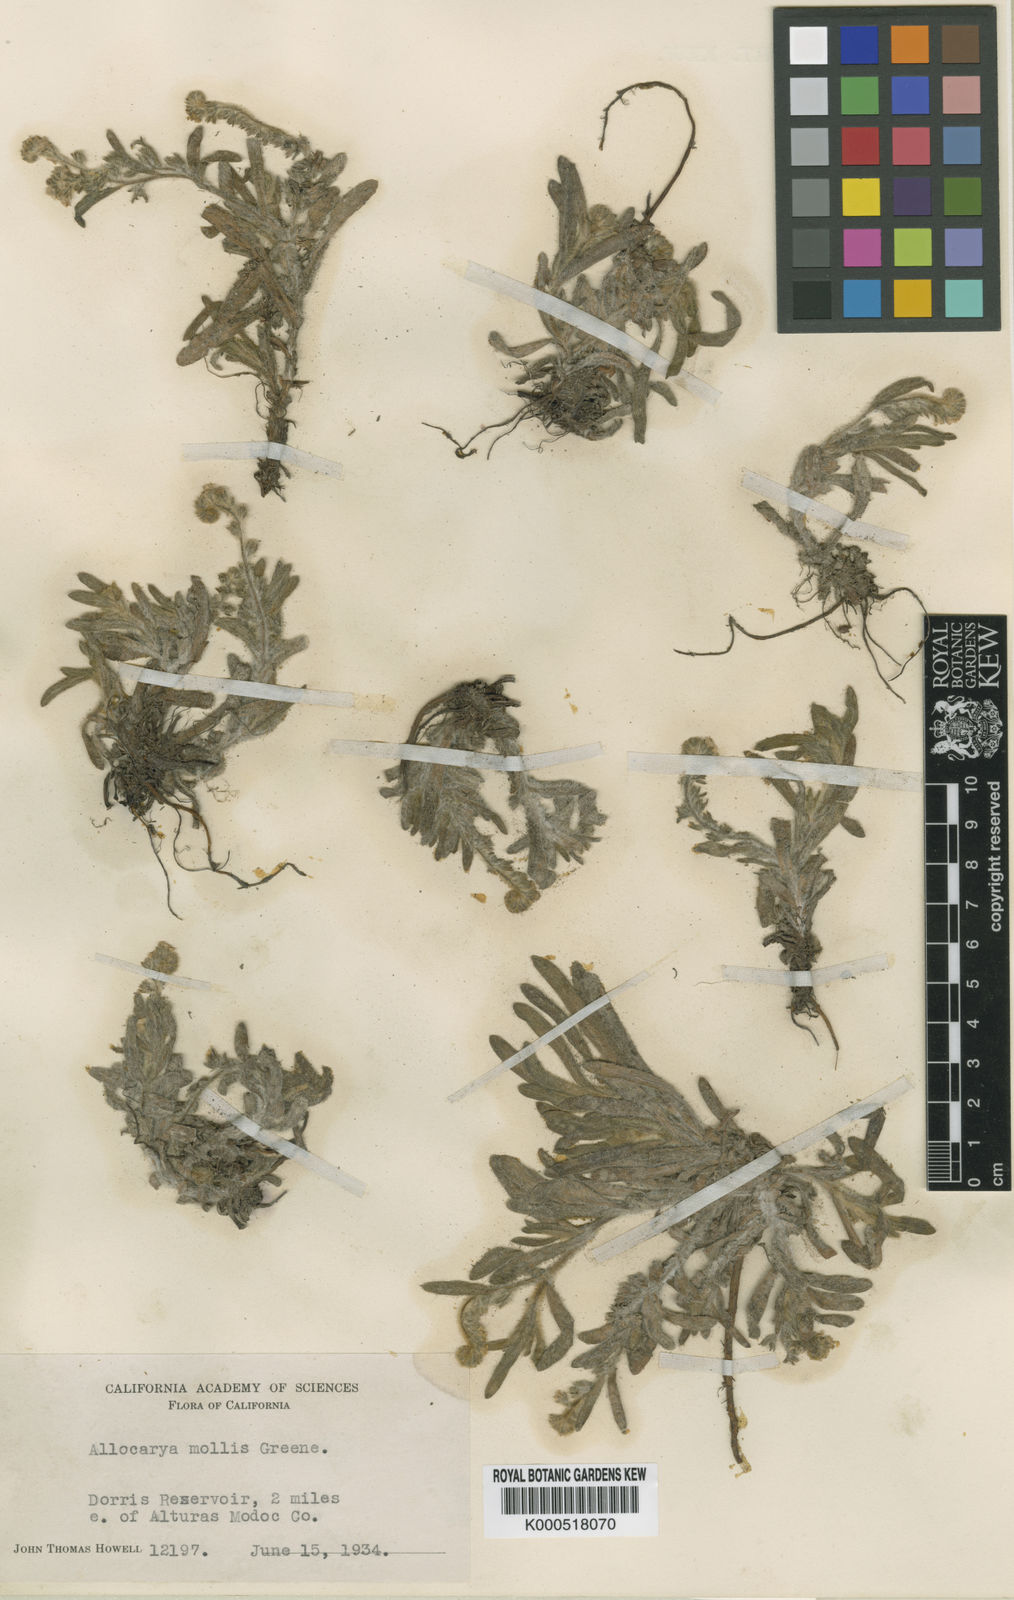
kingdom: Plantae
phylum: Tracheophyta
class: Magnoliopsida
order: Boraginales
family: Boraginaceae
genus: Plagiobothrys
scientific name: Plagiobothrys mollis
